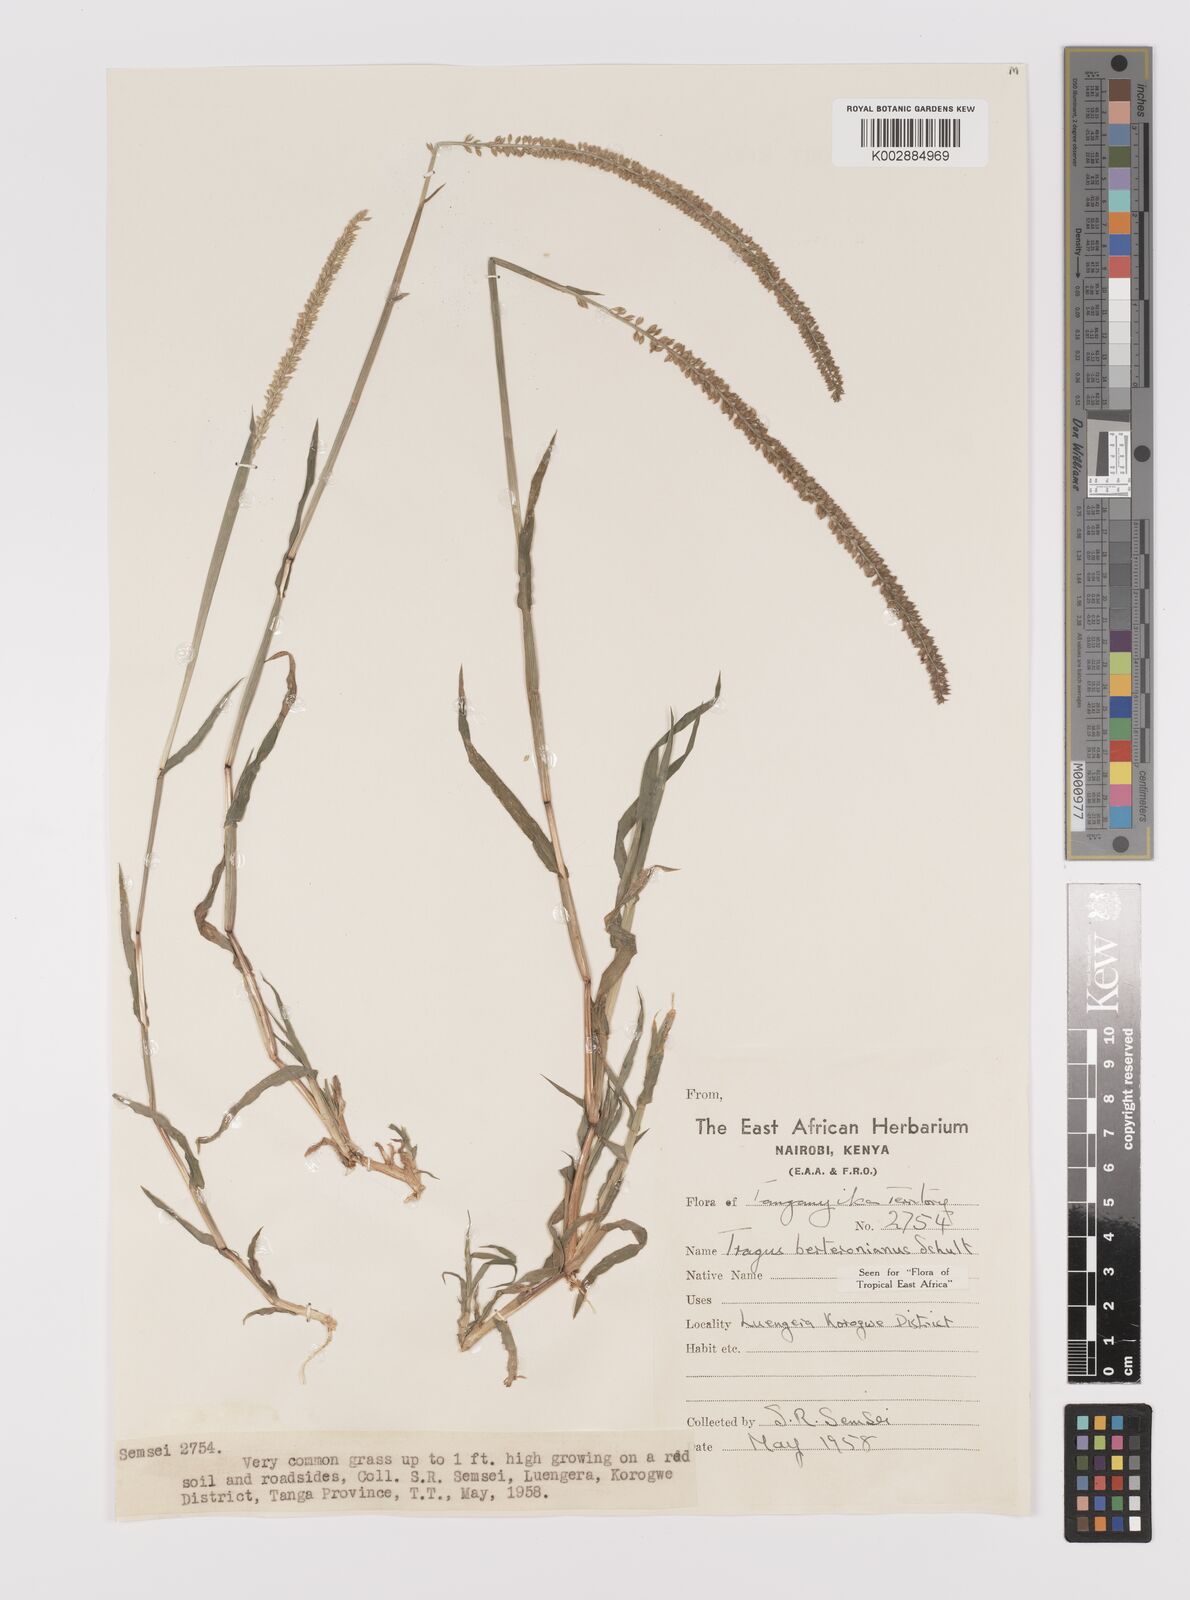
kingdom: Plantae
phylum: Tracheophyta
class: Liliopsida
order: Poales
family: Poaceae
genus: Tragus
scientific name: Tragus berteronianus
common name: African bur-grass
